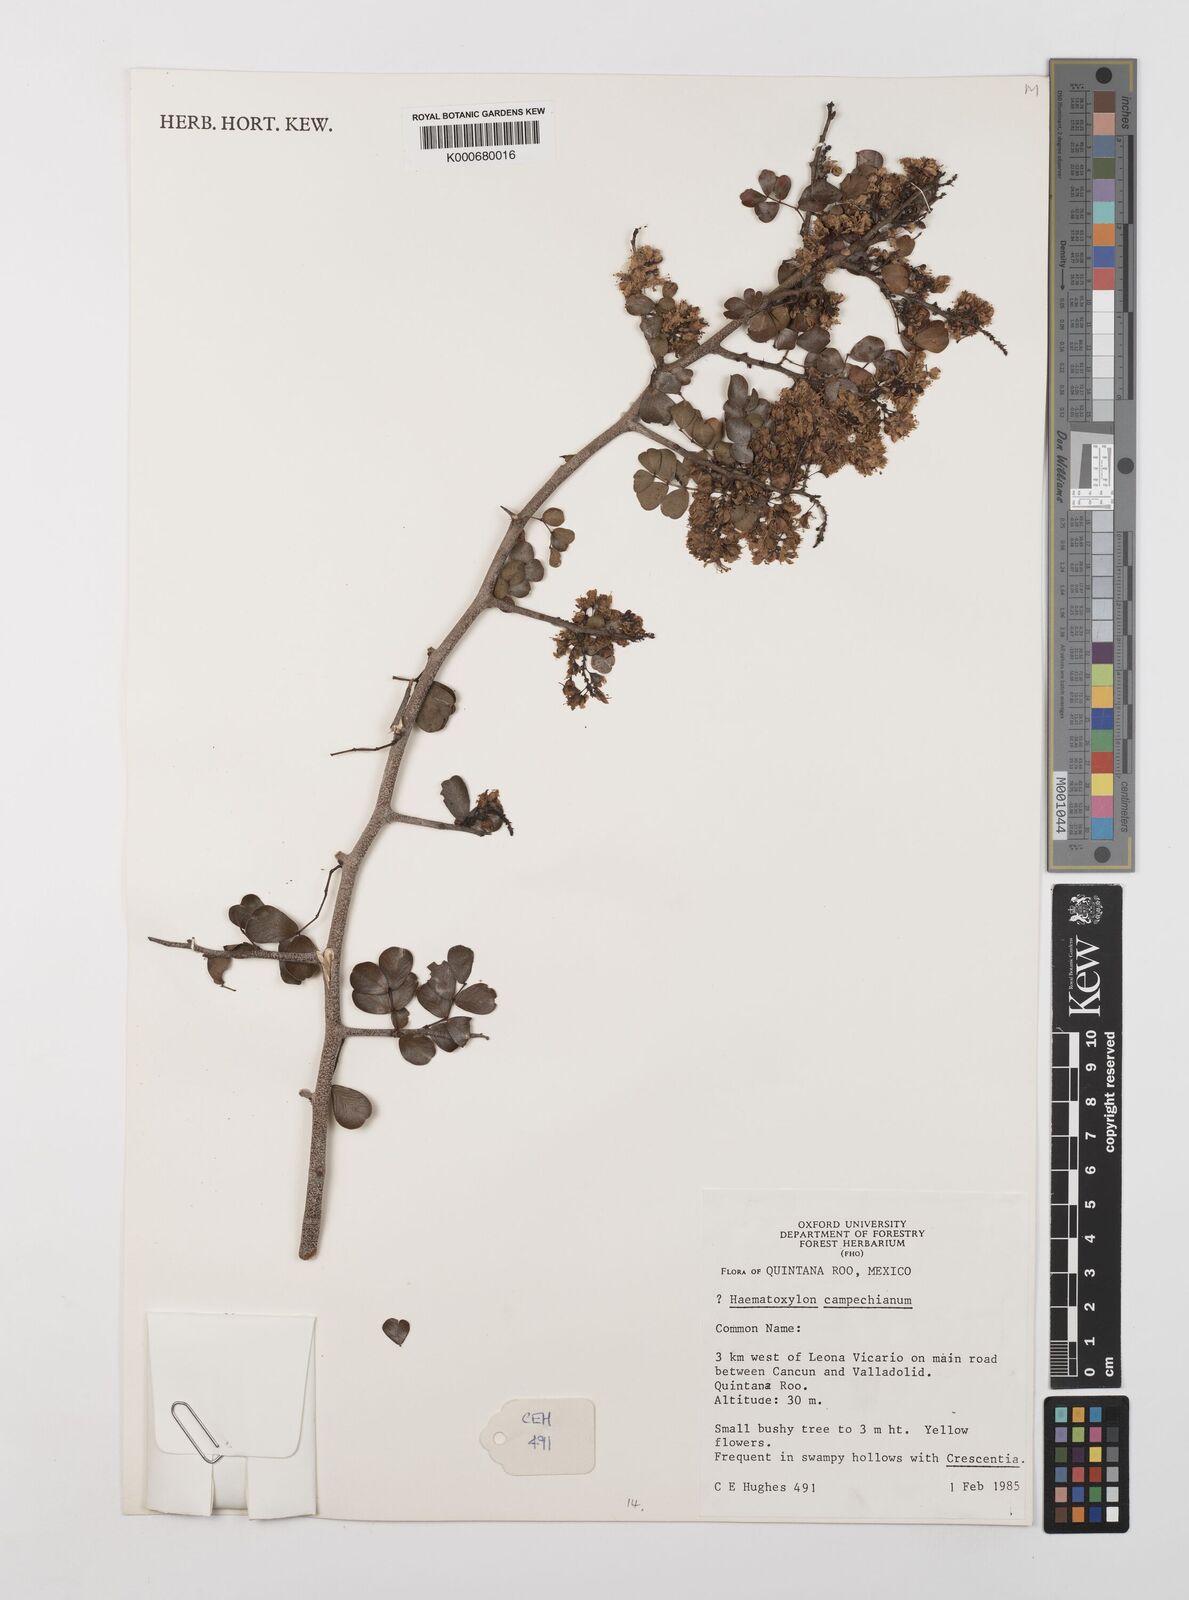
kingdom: Plantae
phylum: Tracheophyta
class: Magnoliopsida
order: Fabales
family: Fabaceae
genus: Haematoxylum
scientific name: Haematoxylum
